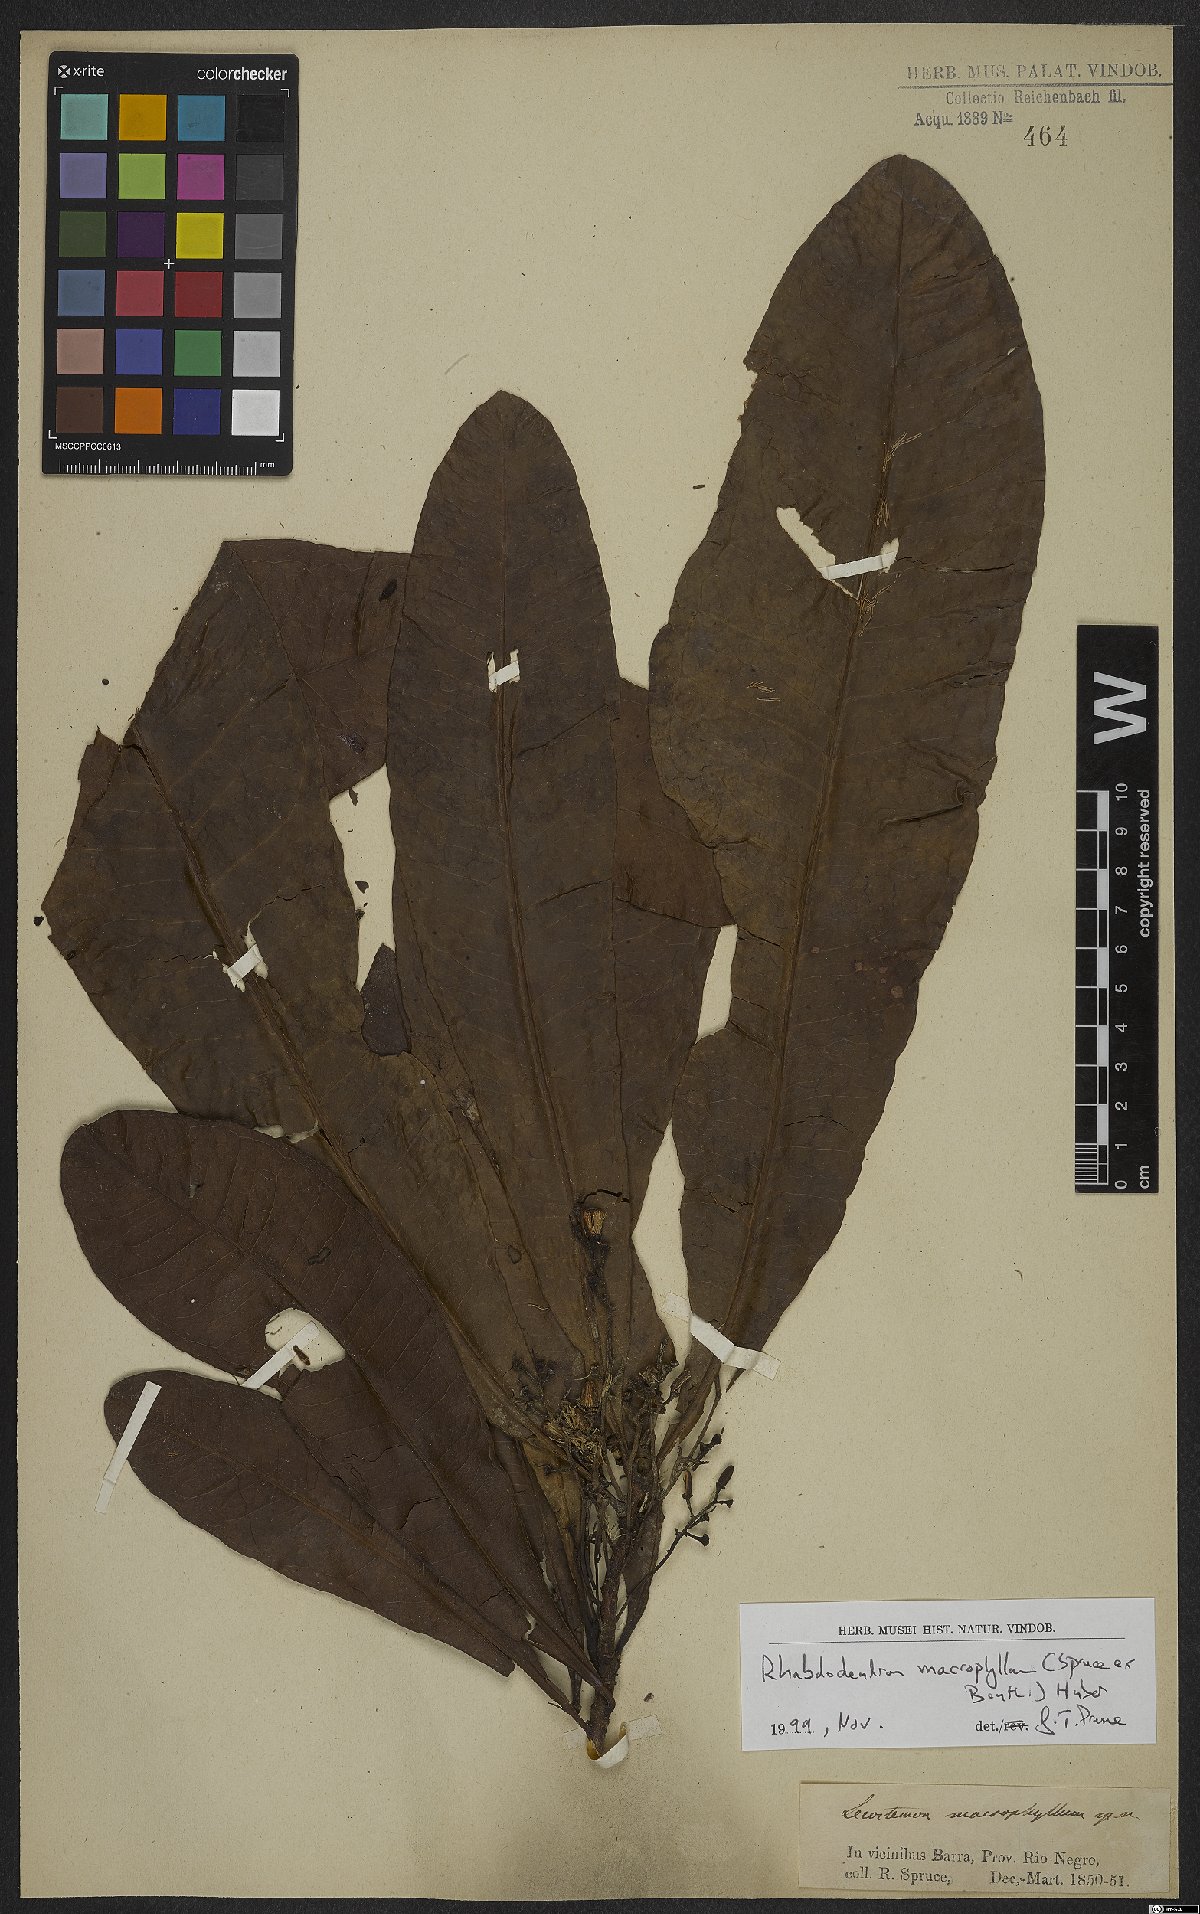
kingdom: Plantae
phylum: Tracheophyta
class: Magnoliopsida
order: Caryophyllales
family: Rhabdodendraceae
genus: Rhabdodendron
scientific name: Rhabdodendron macrophyllum
